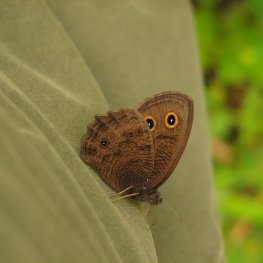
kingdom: Animalia
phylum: Arthropoda
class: Insecta
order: Lepidoptera
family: Nymphalidae
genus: Cercyonis
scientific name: Cercyonis pegala
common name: Common Wood-Nymph
